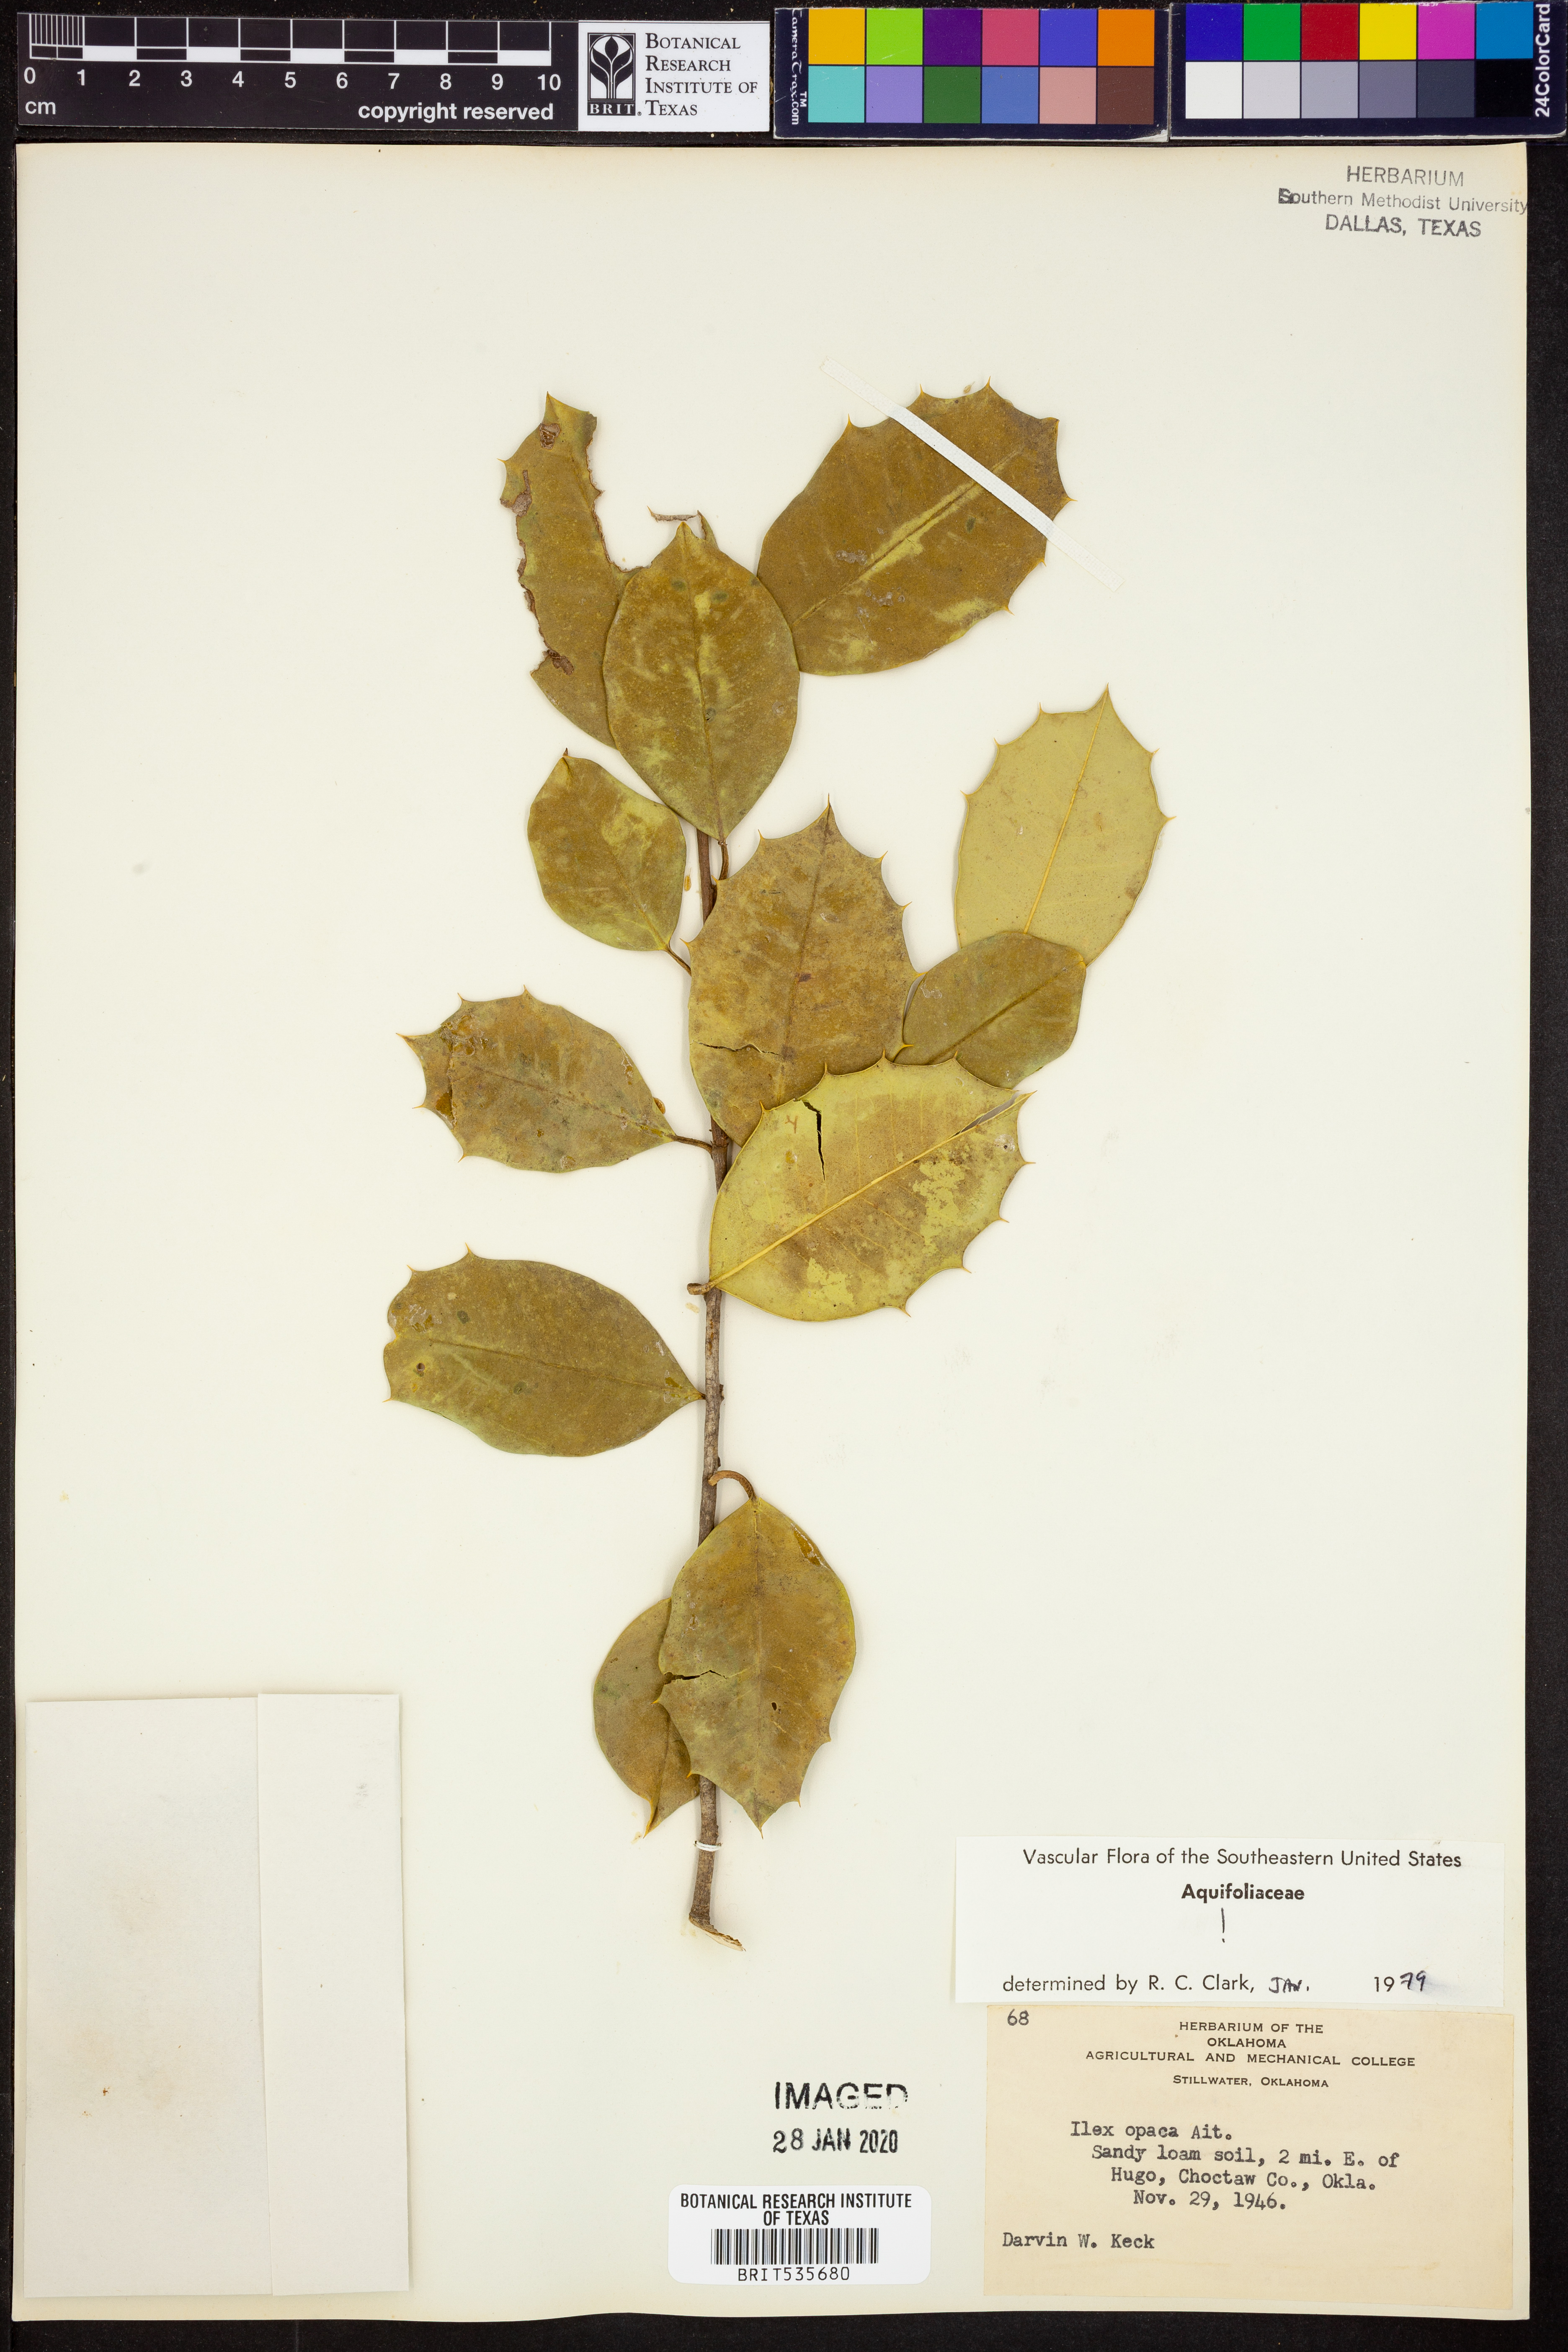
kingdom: Plantae
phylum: Tracheophyta
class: Magnoliopsida
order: Aquifoliales
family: Aquifoliaceae
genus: Ilex
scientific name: Ilex opaca
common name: American holly
